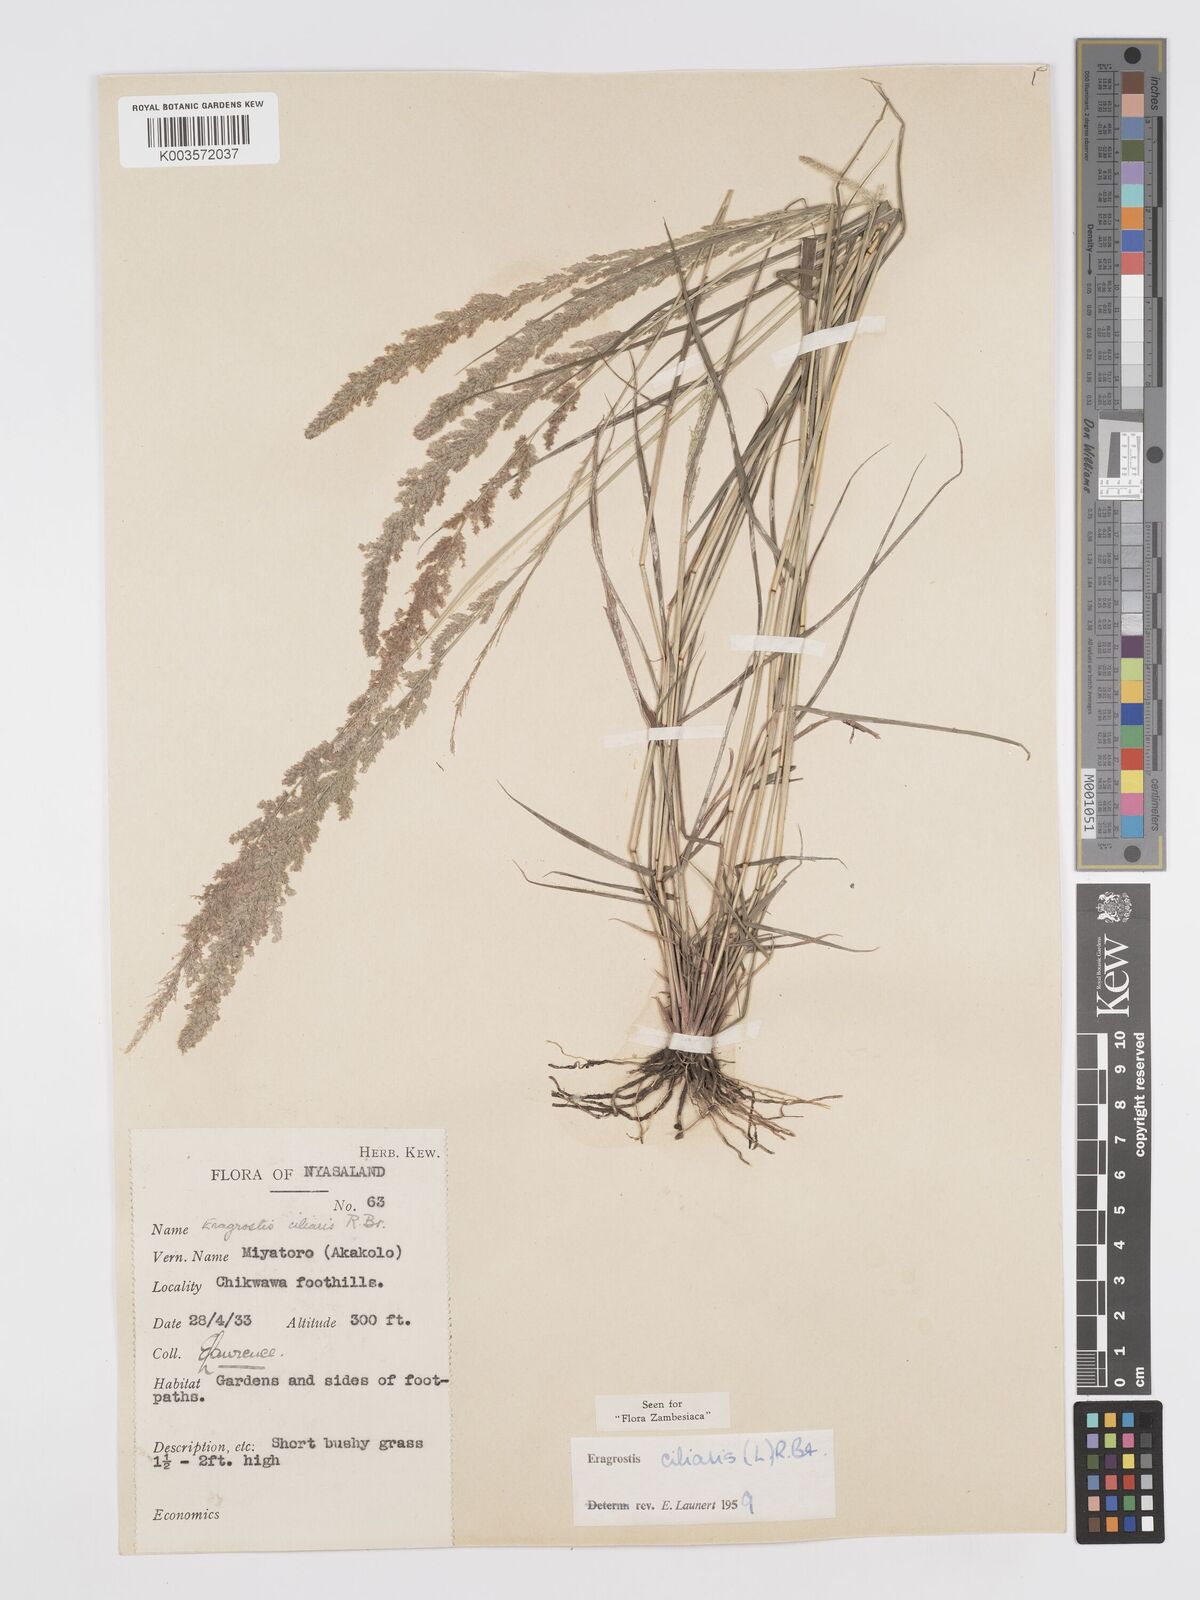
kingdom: Plantae
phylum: Tracheophyta
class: Liliopsida
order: Poales
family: Poaceae
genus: Eragrostis
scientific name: Eragrostis ciliaris
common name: Gophertail lovegrass
